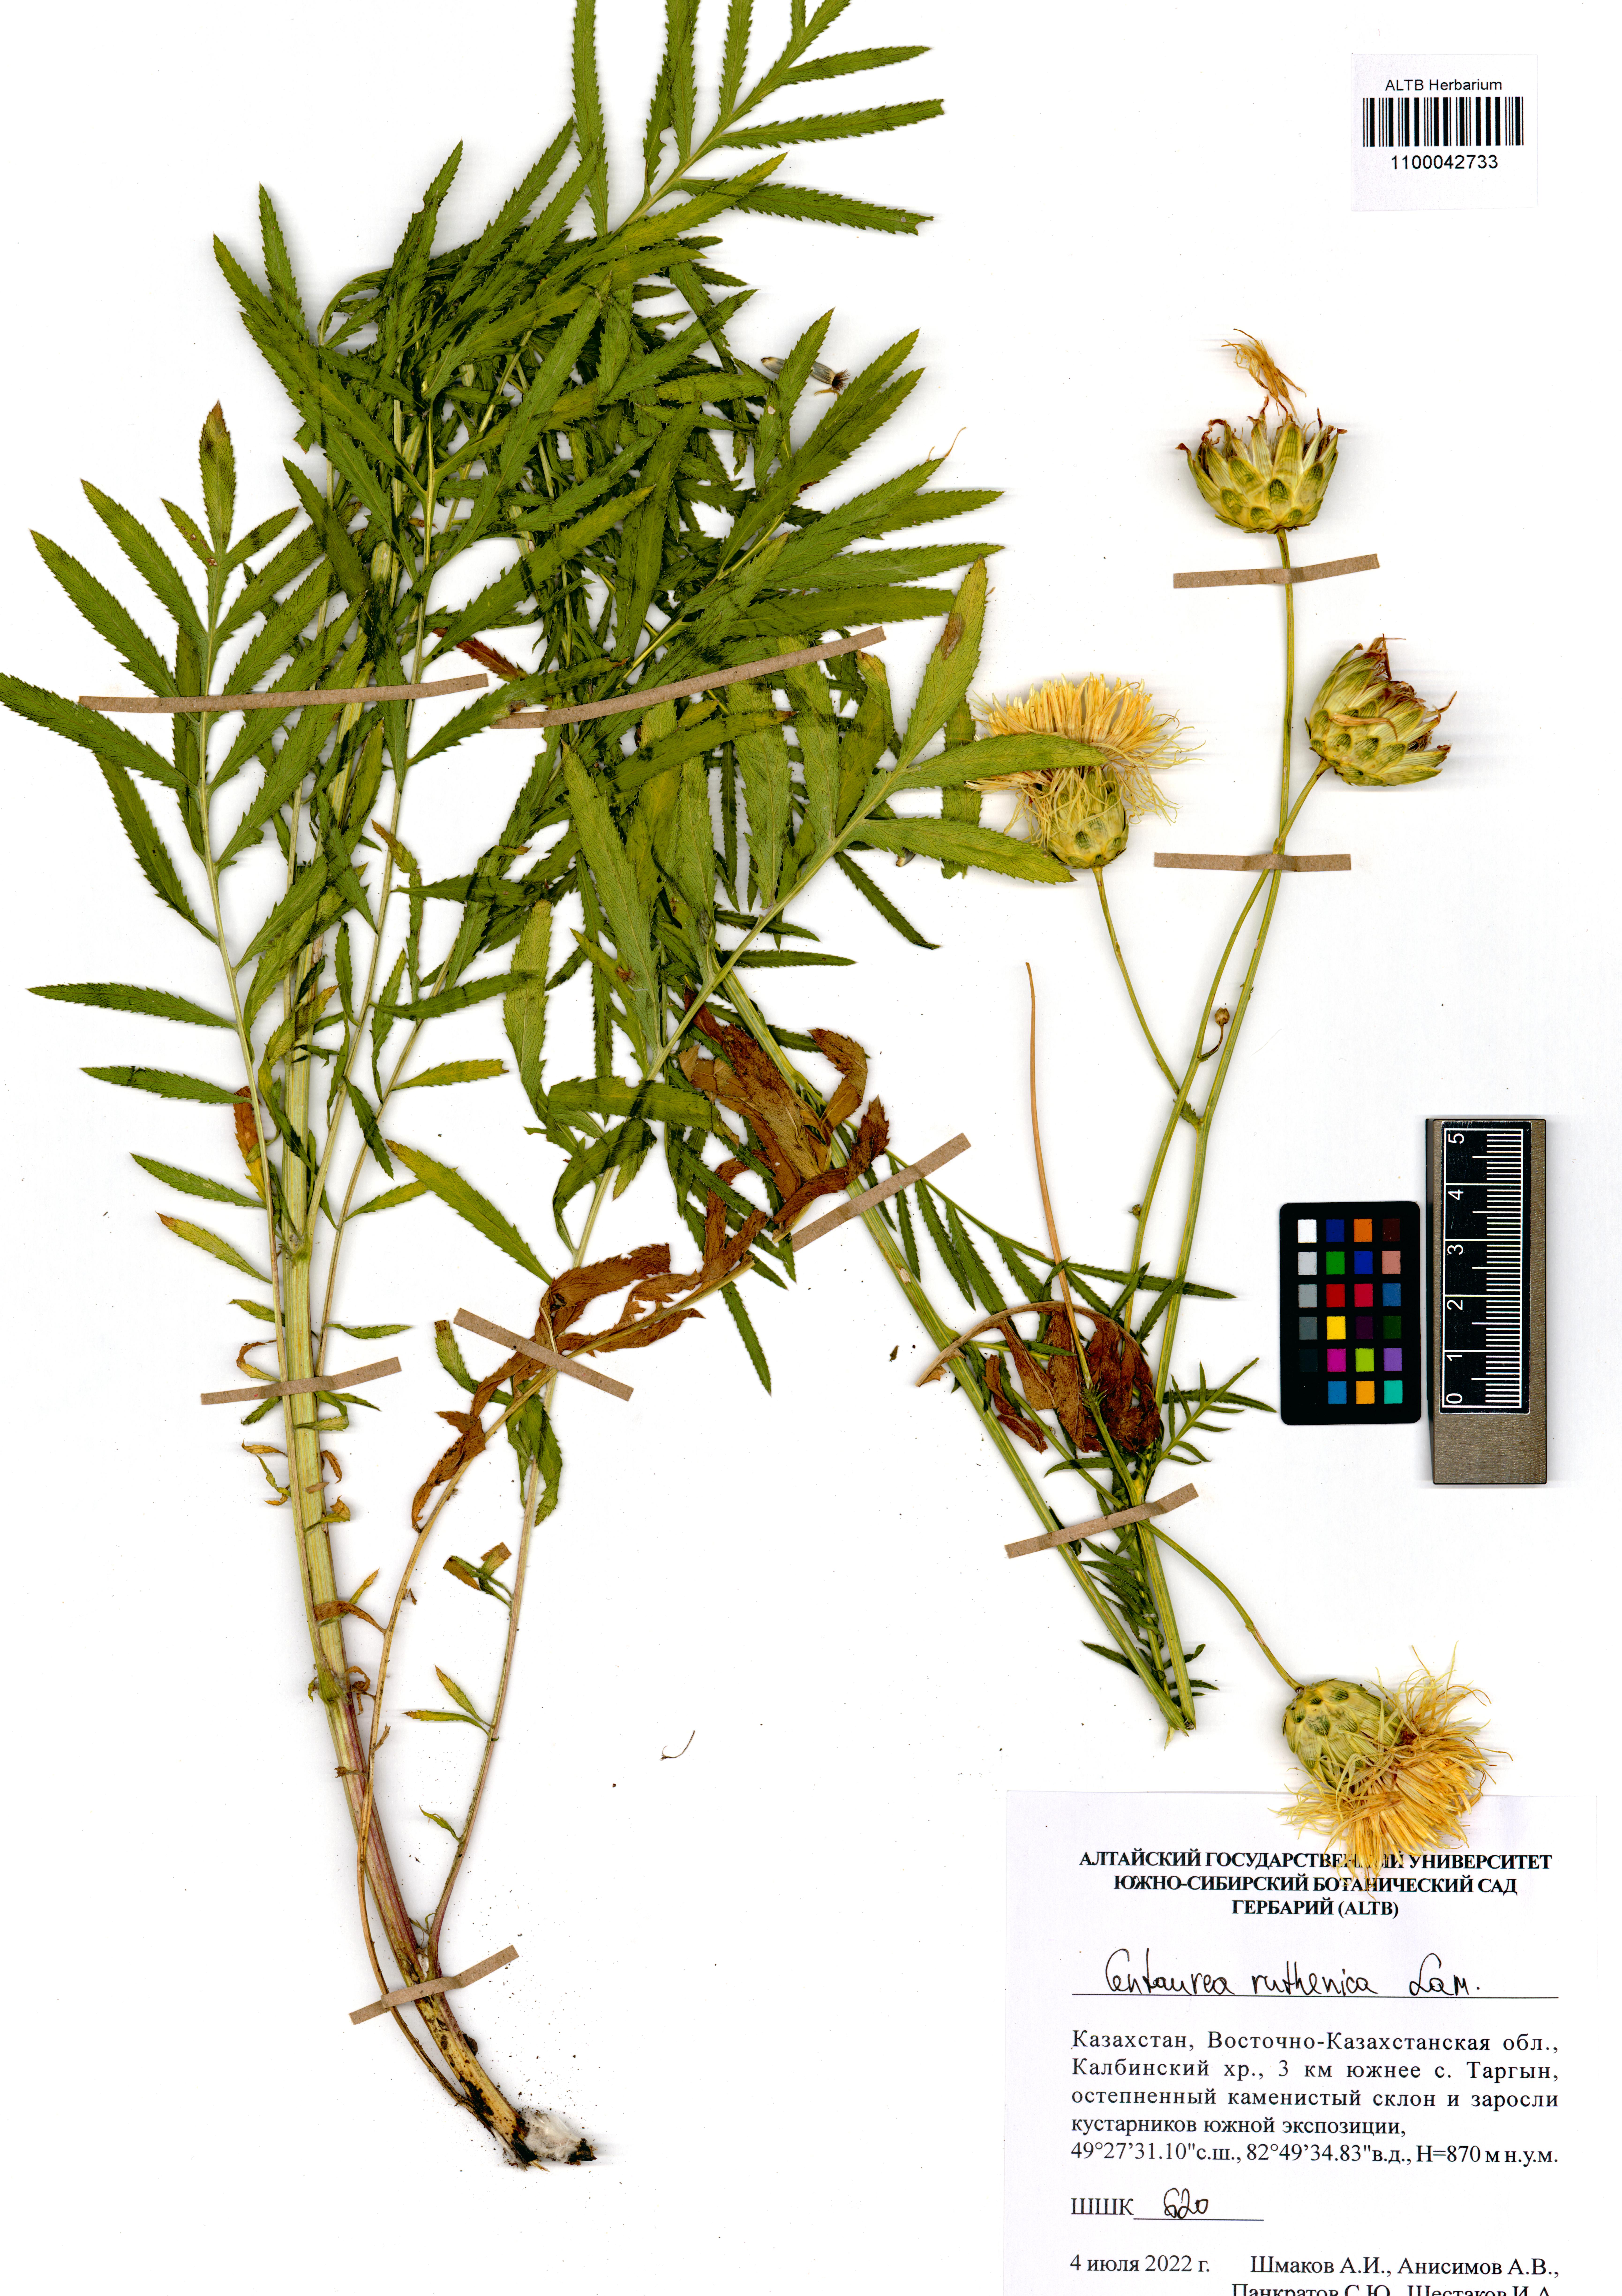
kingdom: Plantae
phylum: Tracheophyta
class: Magnoliopsida
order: Asterales
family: Asteraceae
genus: Rhaponticoides
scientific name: Rhaponticoides ruthenica
